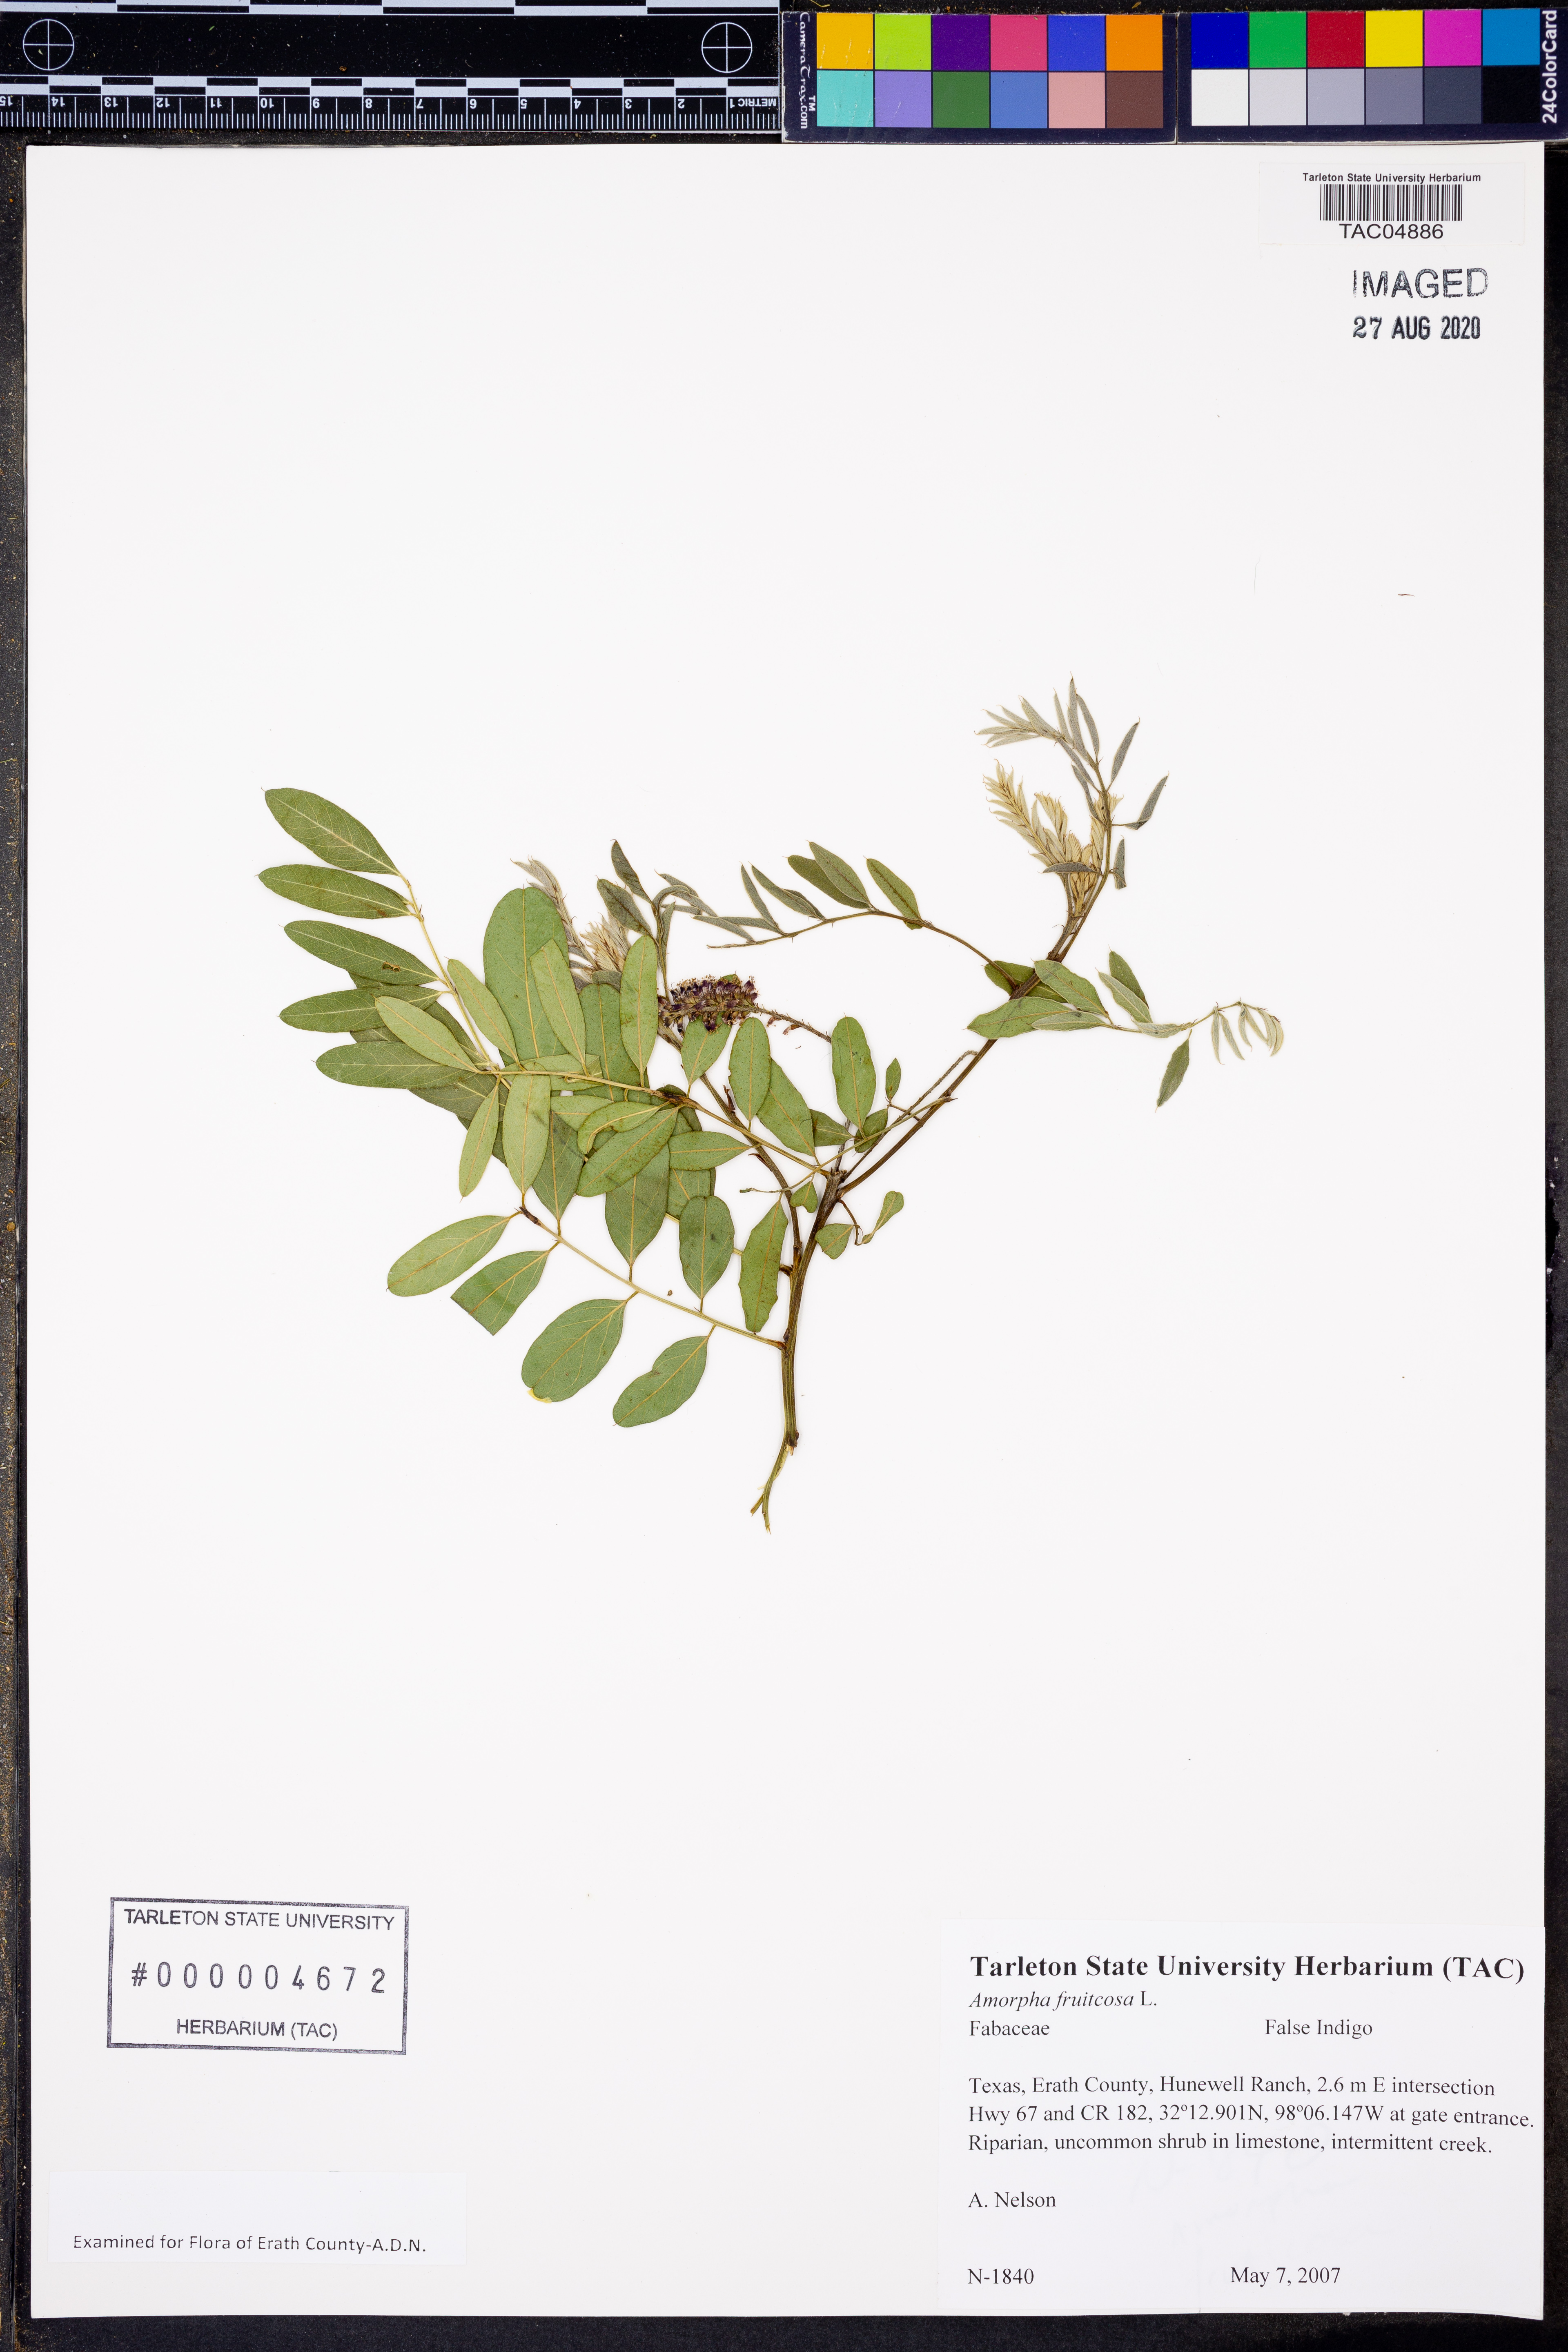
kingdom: Plantae
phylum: Tracheophyta
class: Magnoliopsida
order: Fabales
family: Fabaceae
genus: Amorpha
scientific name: Amorpha fruticosa
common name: False indigo
